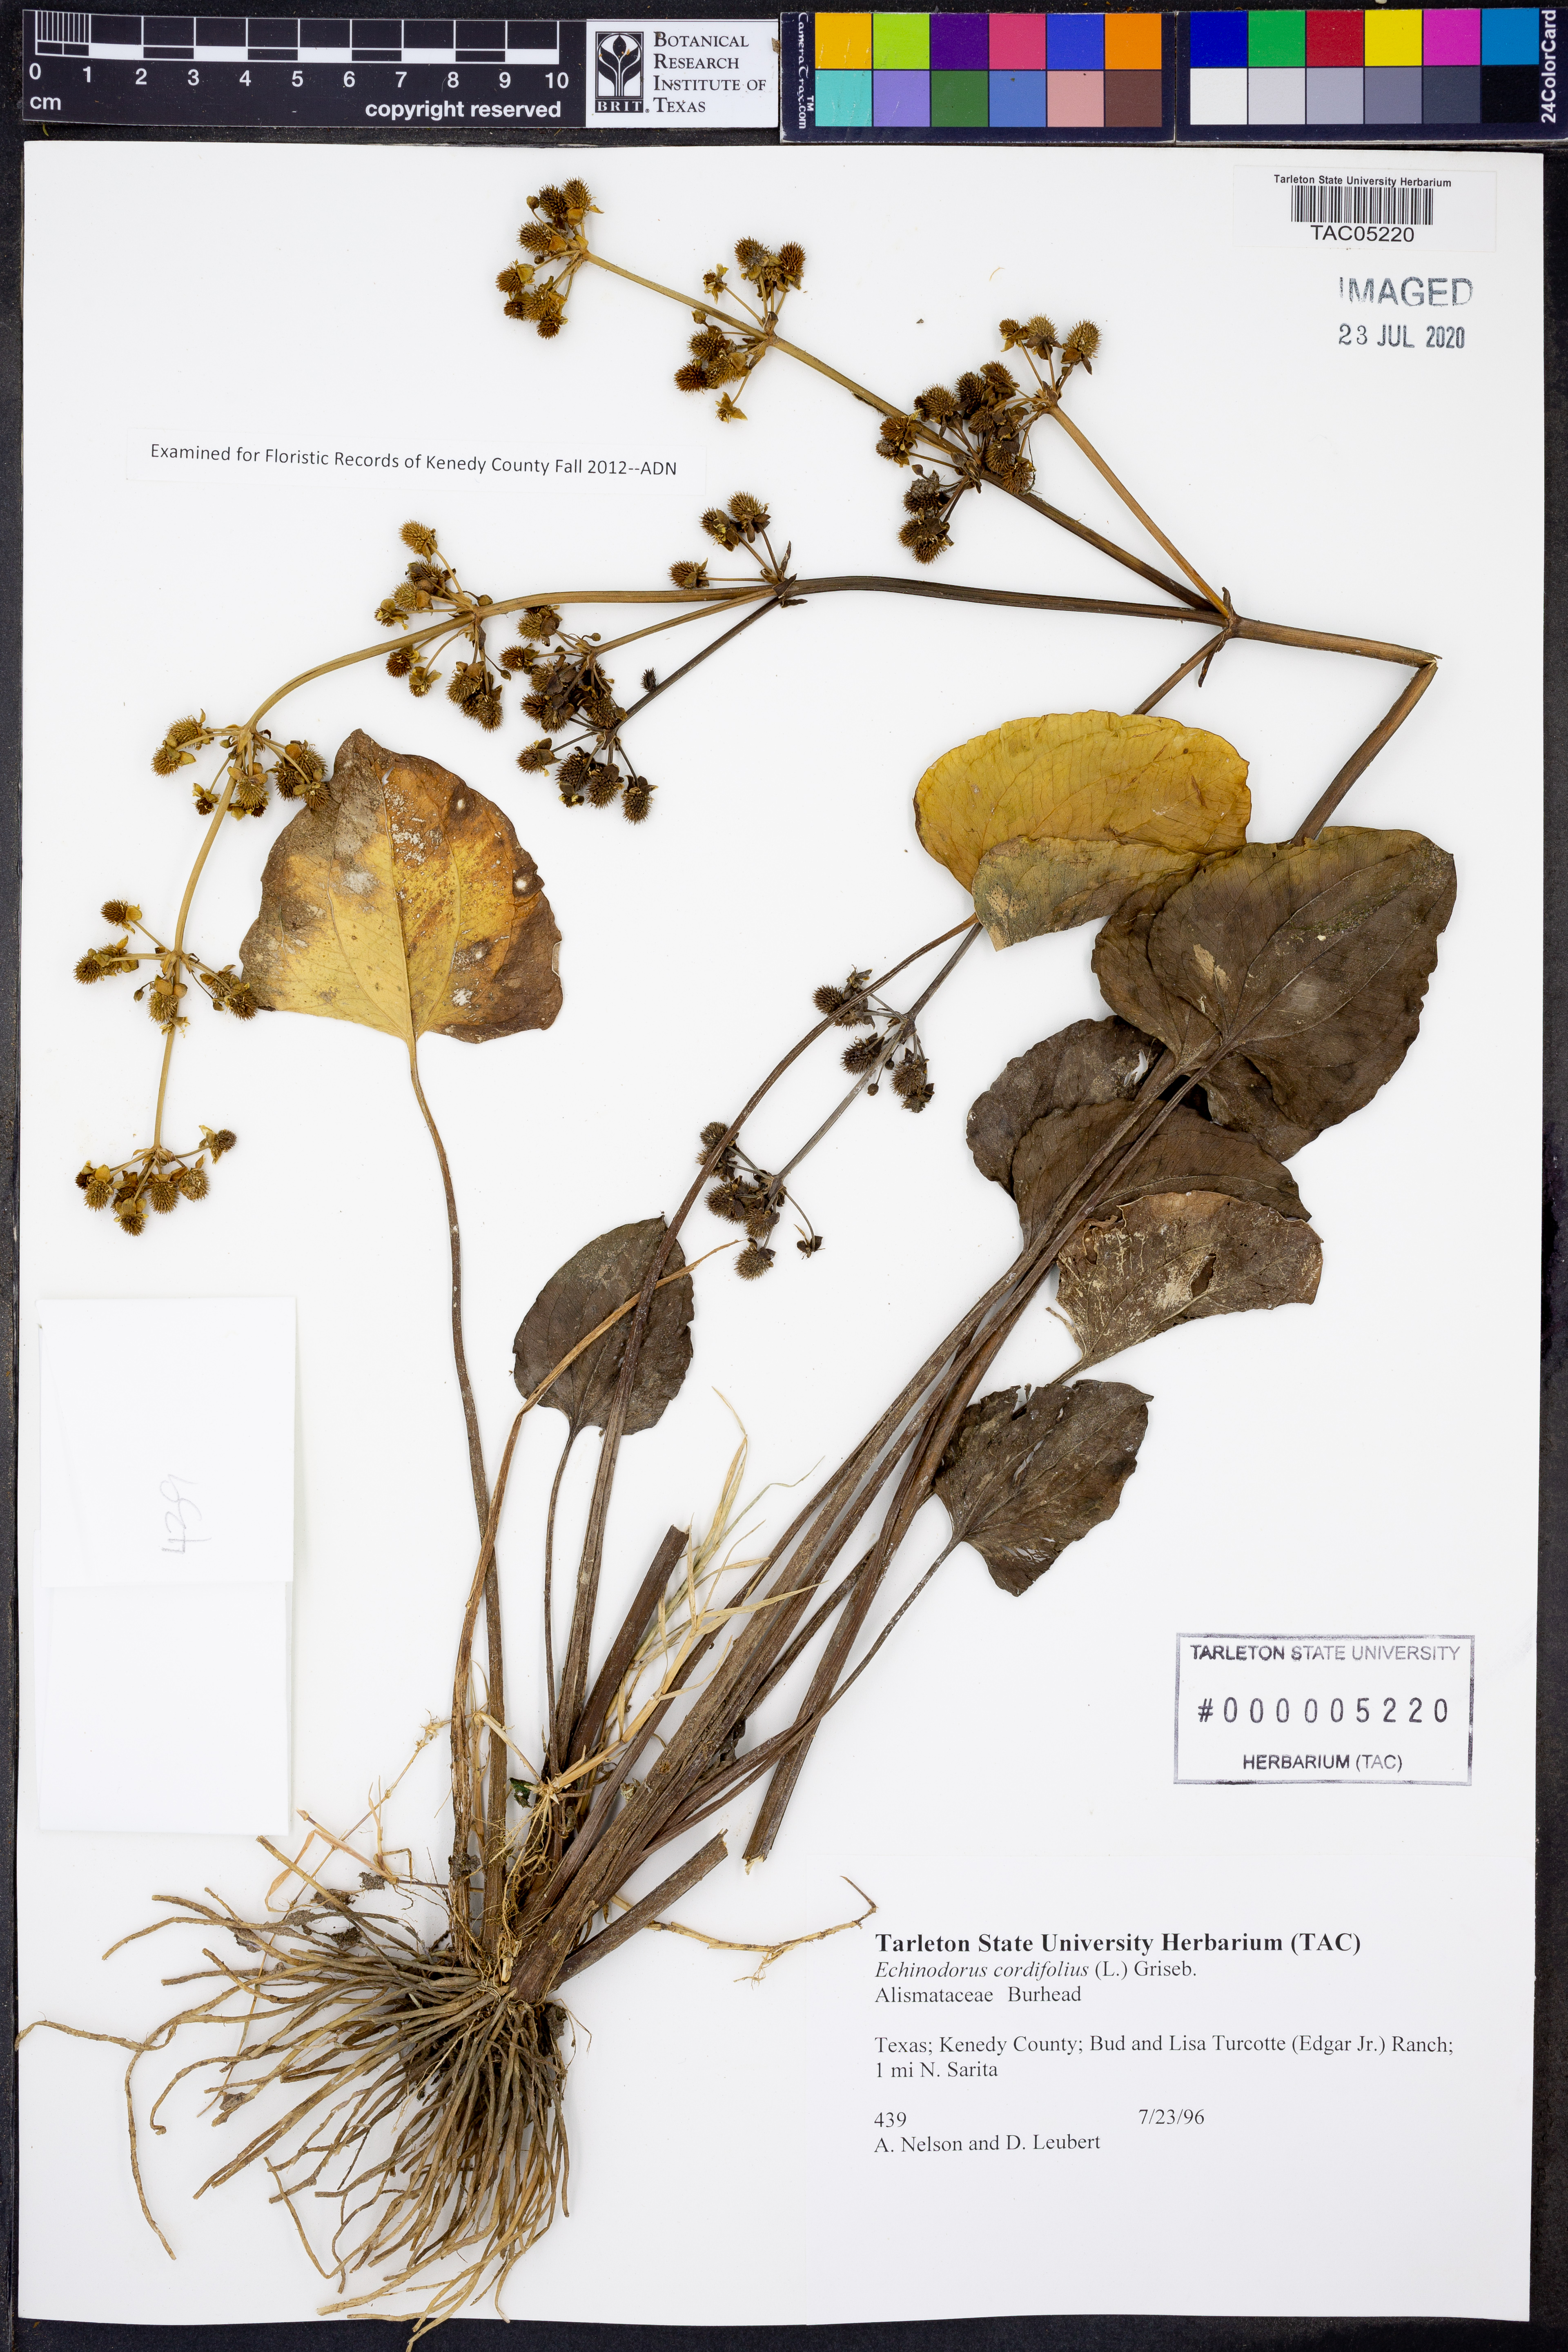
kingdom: Plantae
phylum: Tracheophyta
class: Liliopsida
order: Alismatales
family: Alismataceae
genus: Aquarius
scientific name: Aquarius cordifolius
